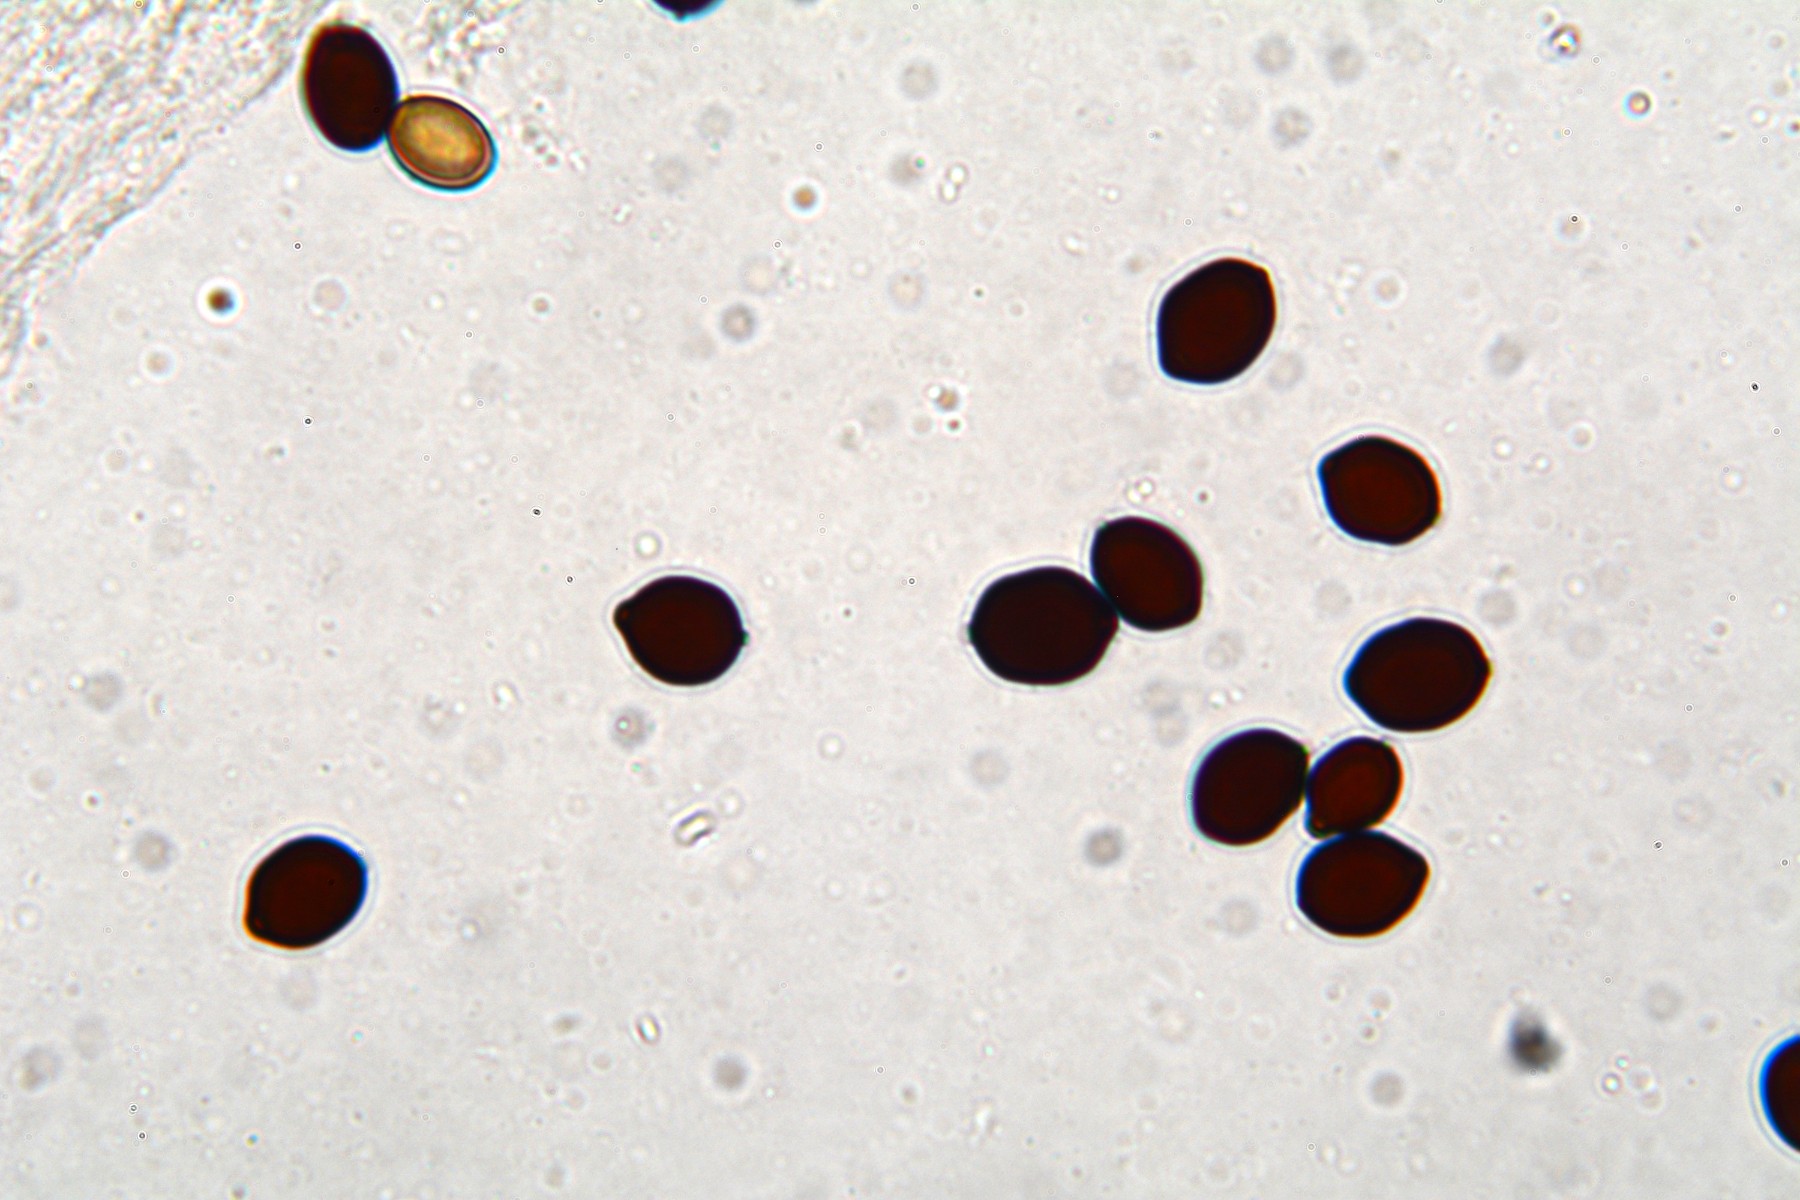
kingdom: Fungi
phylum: Basidiomycota
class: Agaricomycetes
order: Agaricales
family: Psathyrellaceae
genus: Coprinopsis
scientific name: Coprinopsis nivea
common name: snehvid blækhat
